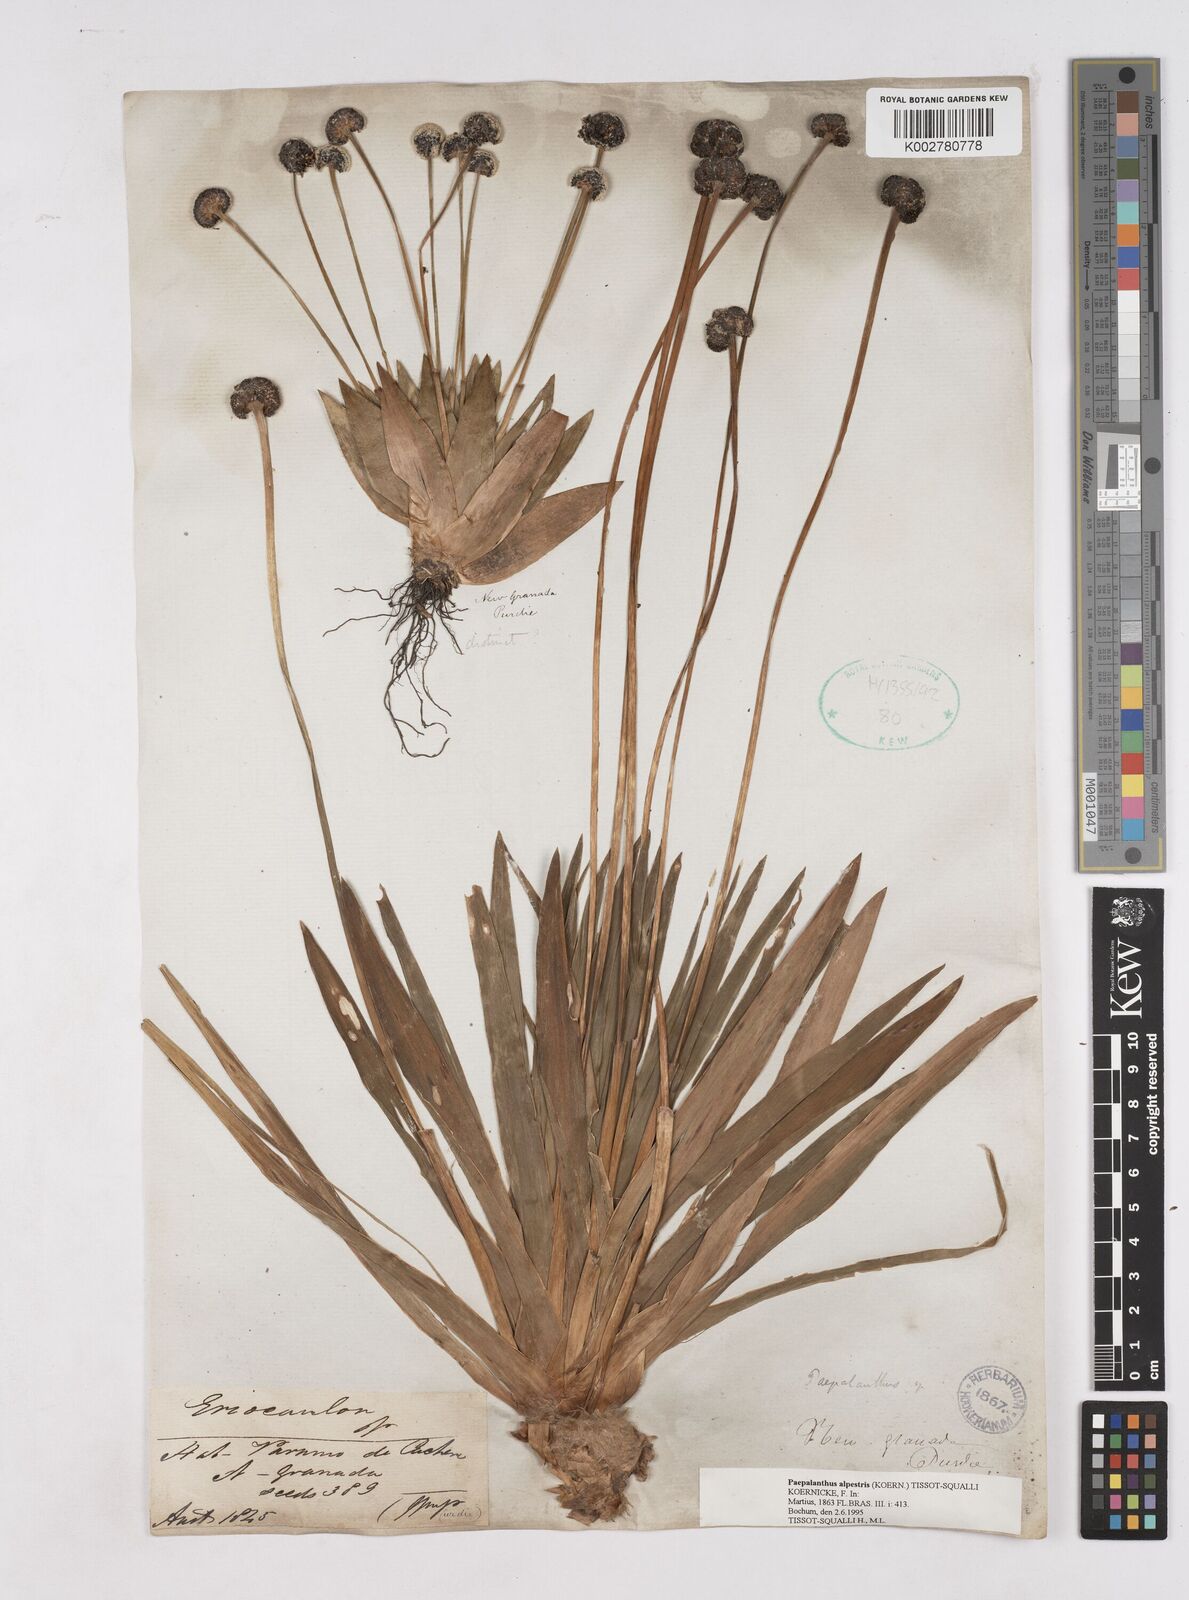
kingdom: Plantae
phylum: Tracheophyta
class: Liliopsida
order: Poales
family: Eriocaulaceae
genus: Paepalanthus
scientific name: Paepalanthus alpestris
